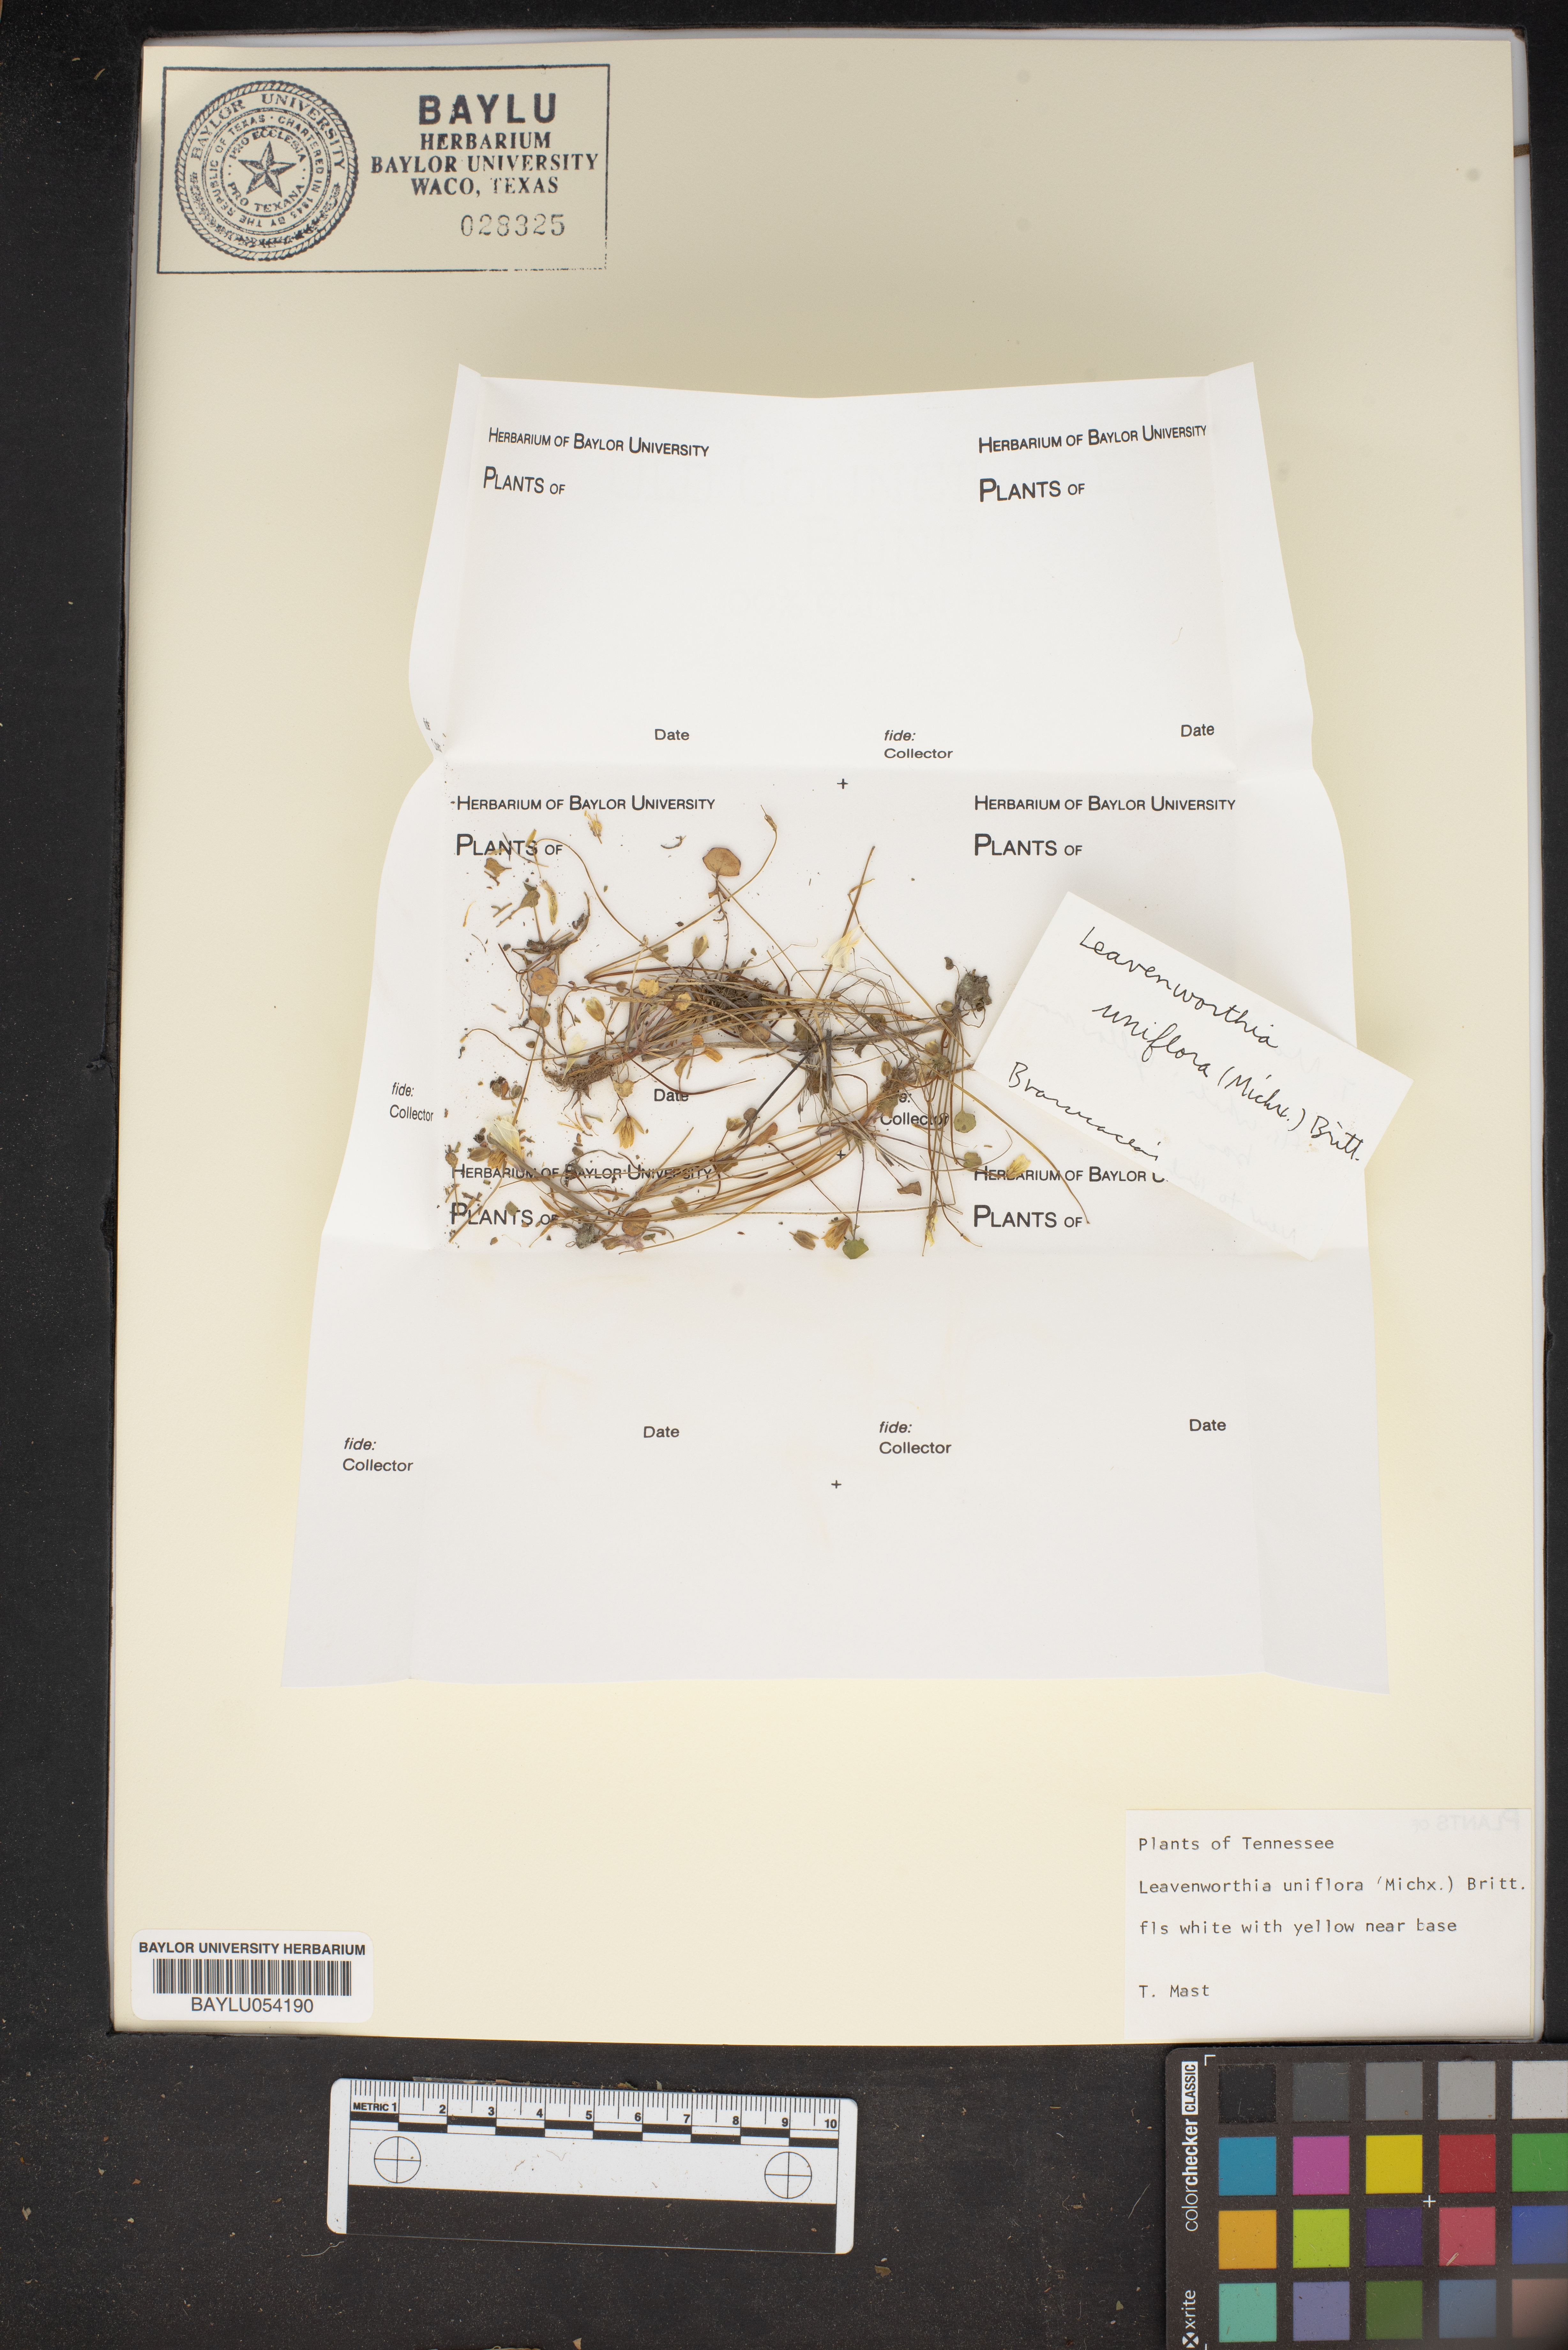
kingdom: Plantae
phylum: Tracheophyta
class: Magnoliopsida
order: Brassicales
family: Brassicaceae
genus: Leavenworthia
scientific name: Leavenworthia uniflora
